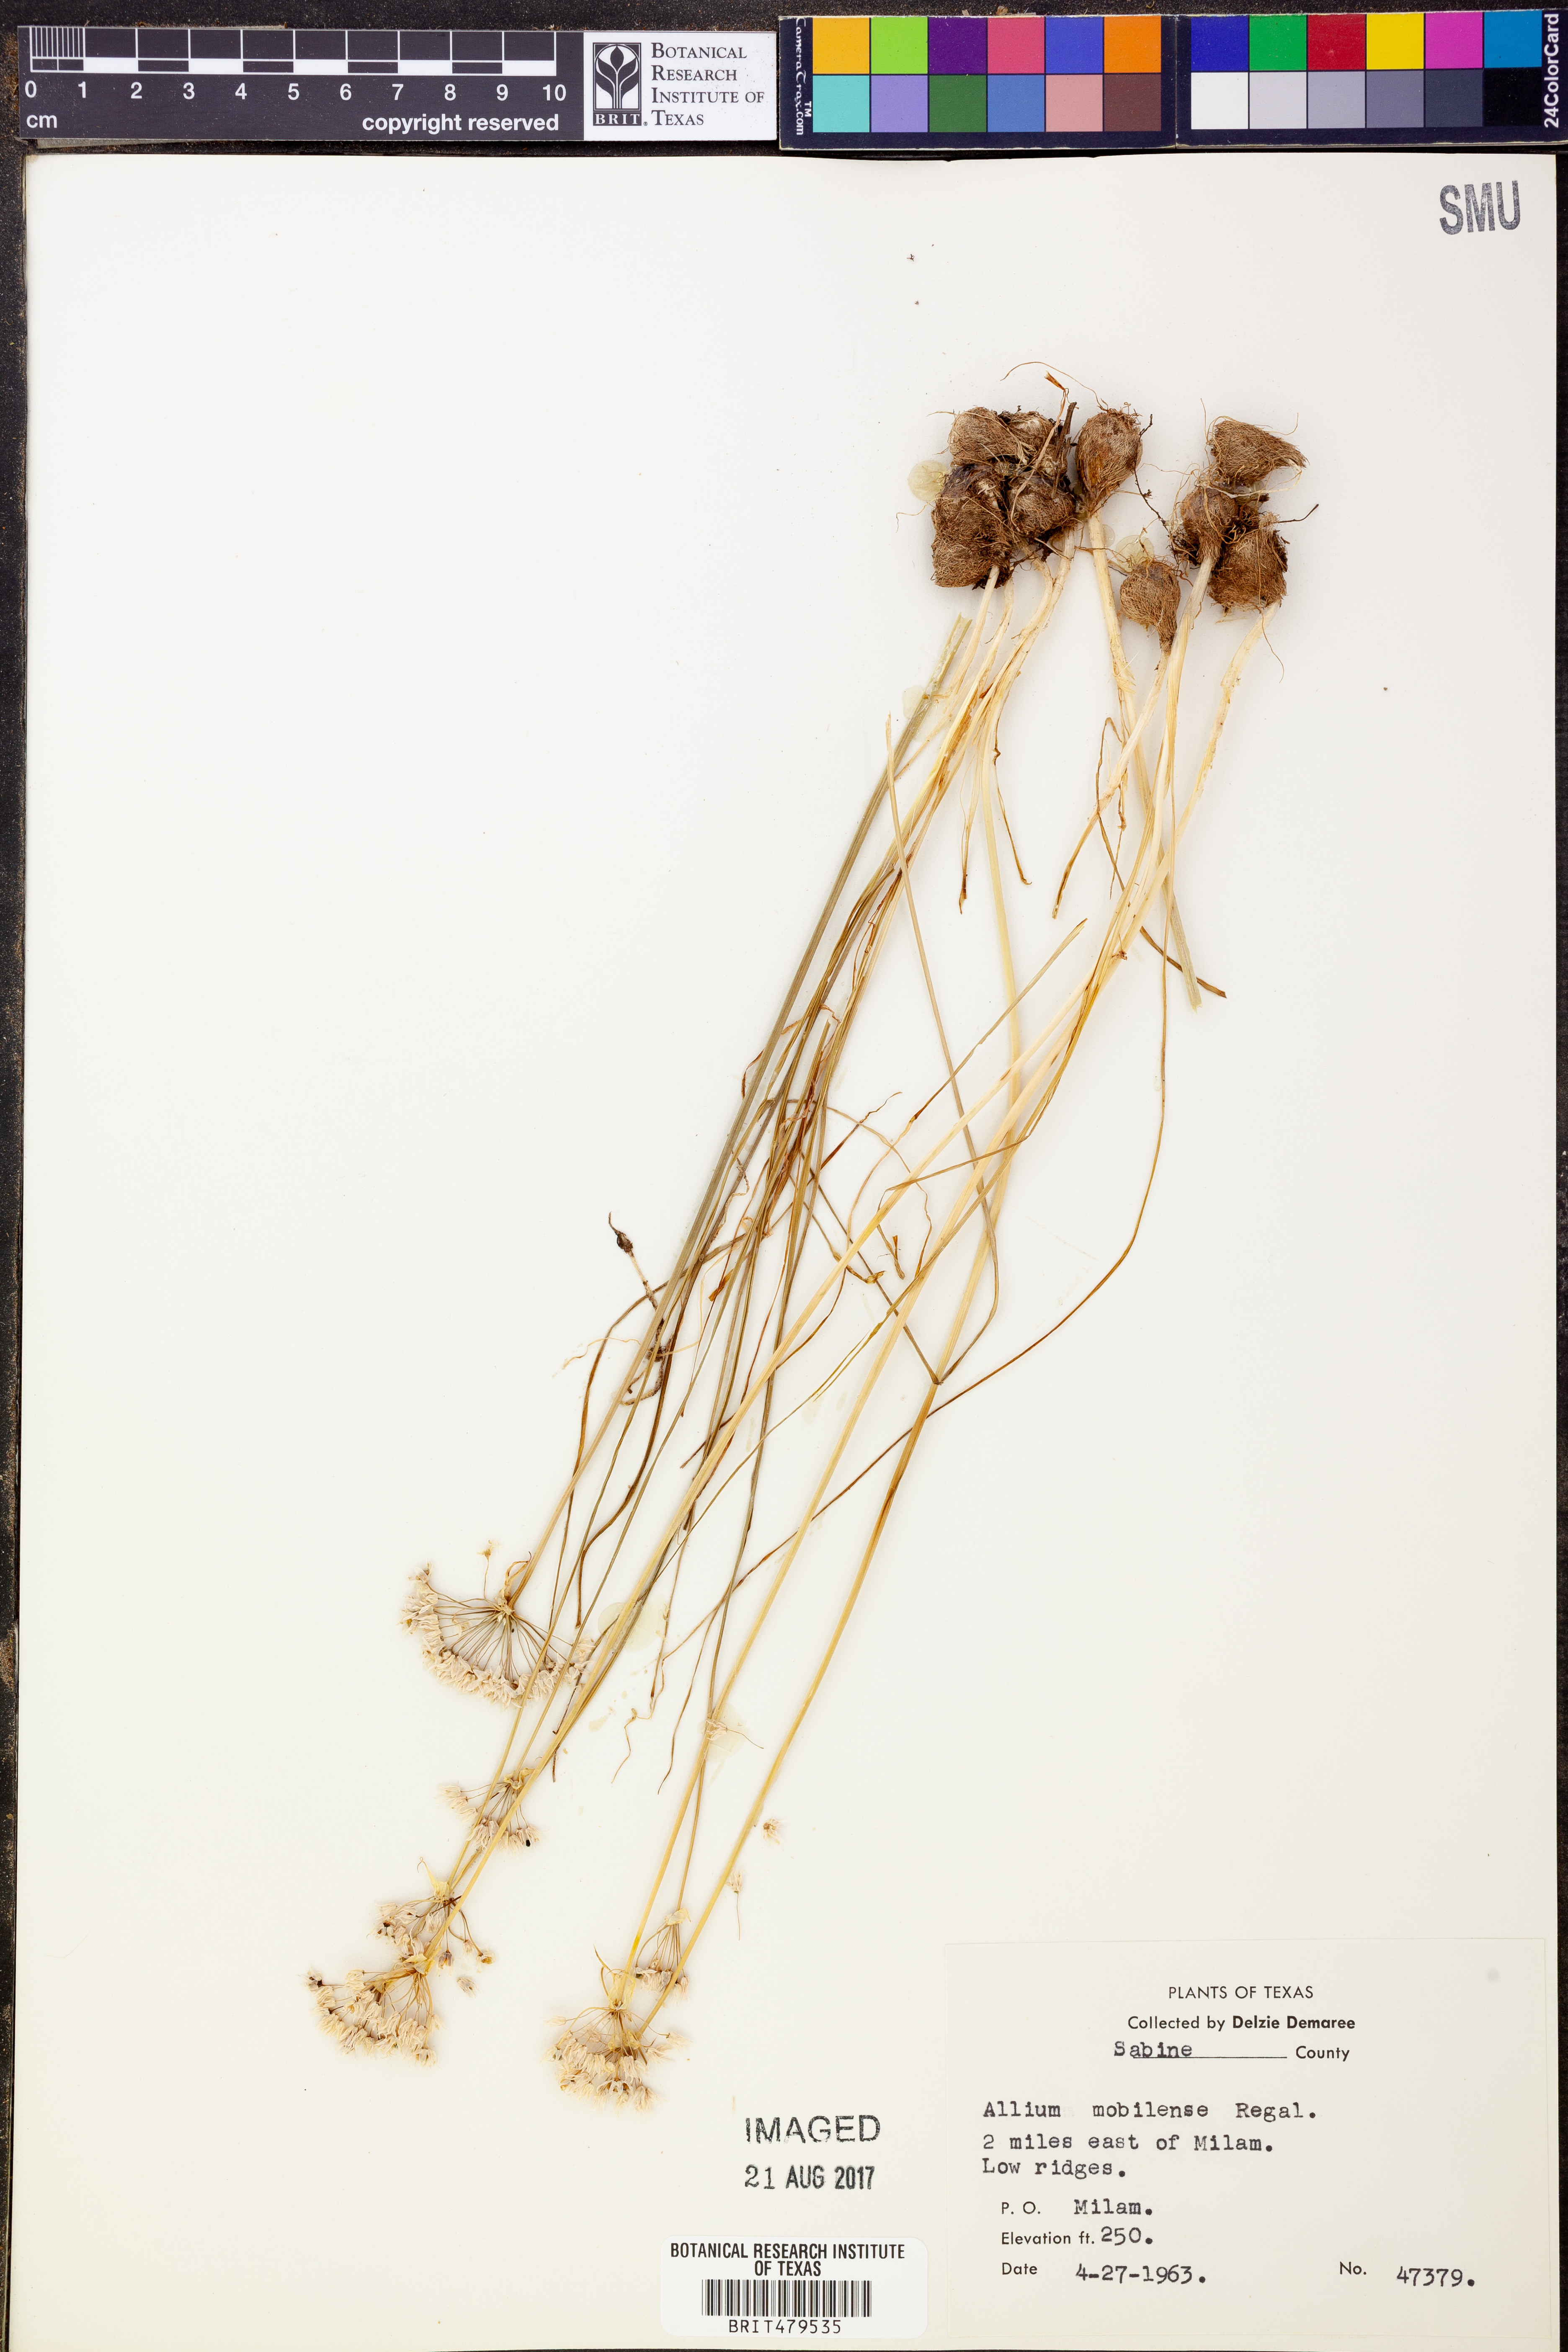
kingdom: Plantae
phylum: Tracheophyta
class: Liliopsida
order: Asparagales
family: Amaryllidaceae
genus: Allium
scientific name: Allium canadense
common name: Meadow garlic
